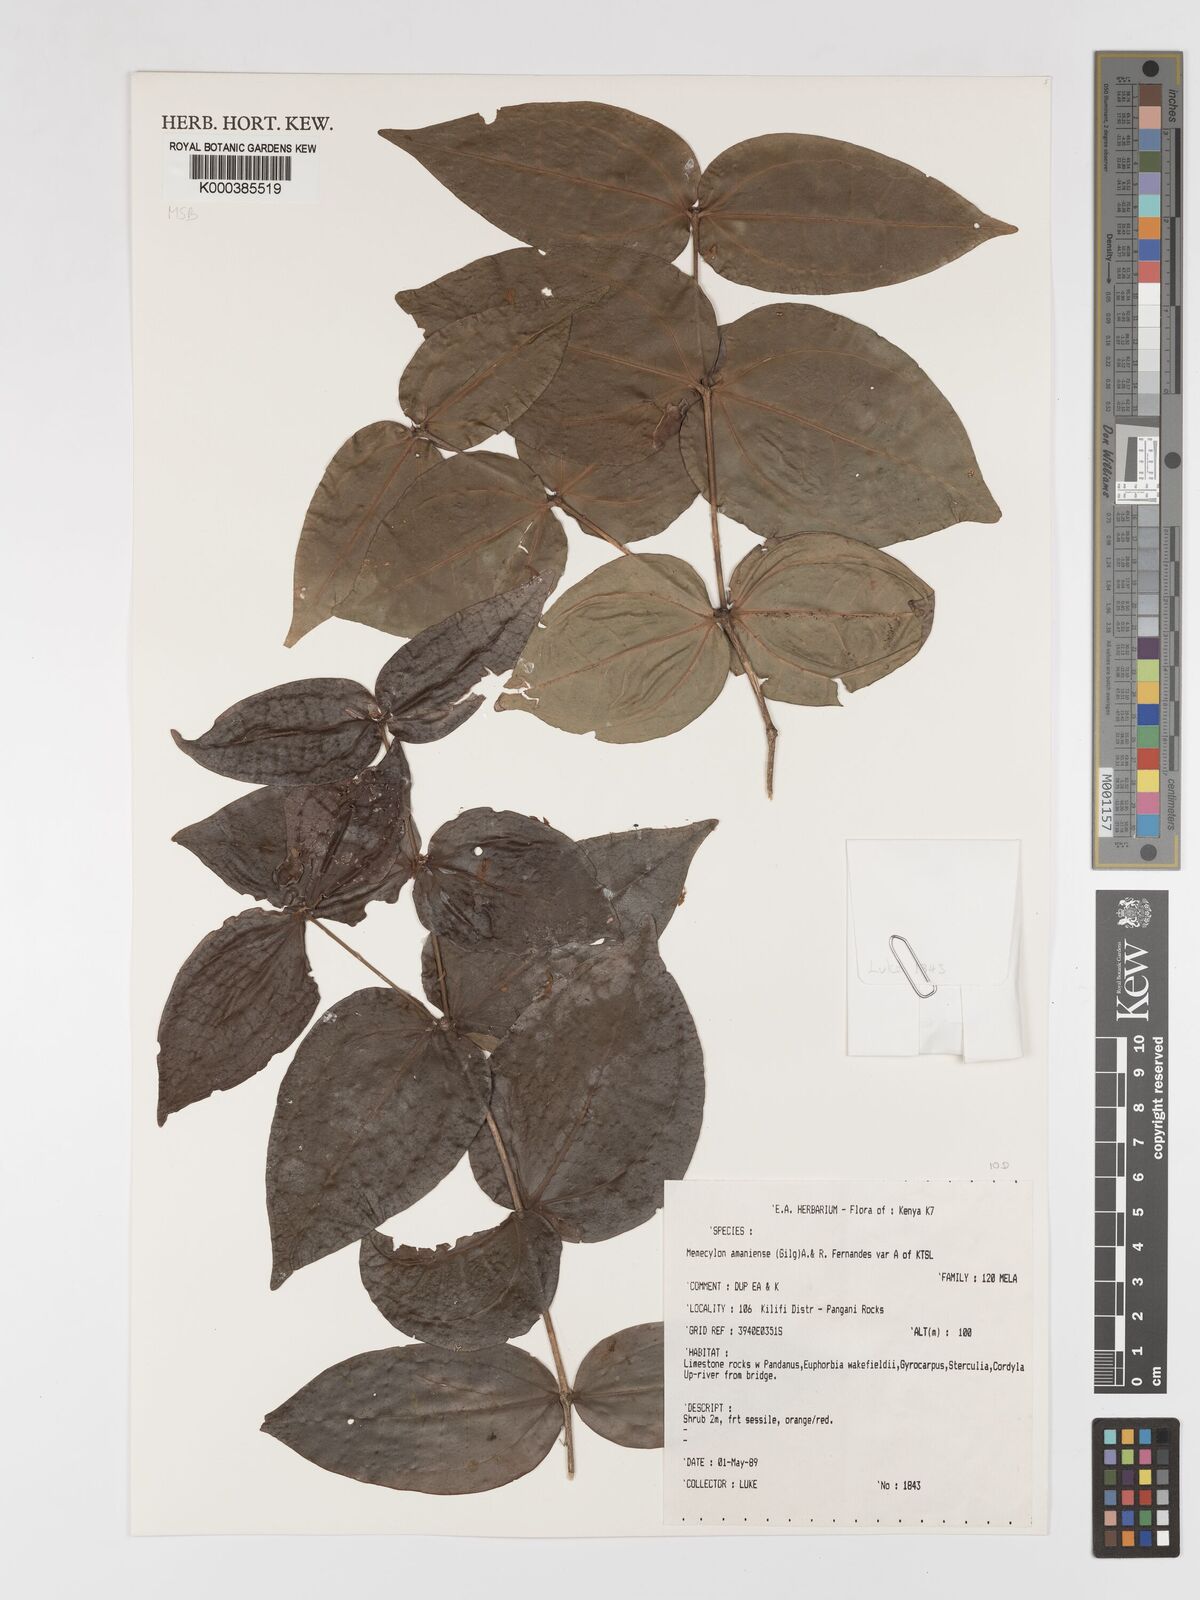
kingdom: Plantae
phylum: Tracheophyta
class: Magnoliopsida
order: Myrtales
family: Melastomataceae
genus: Warneckea
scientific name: Warneckea amaniensis
